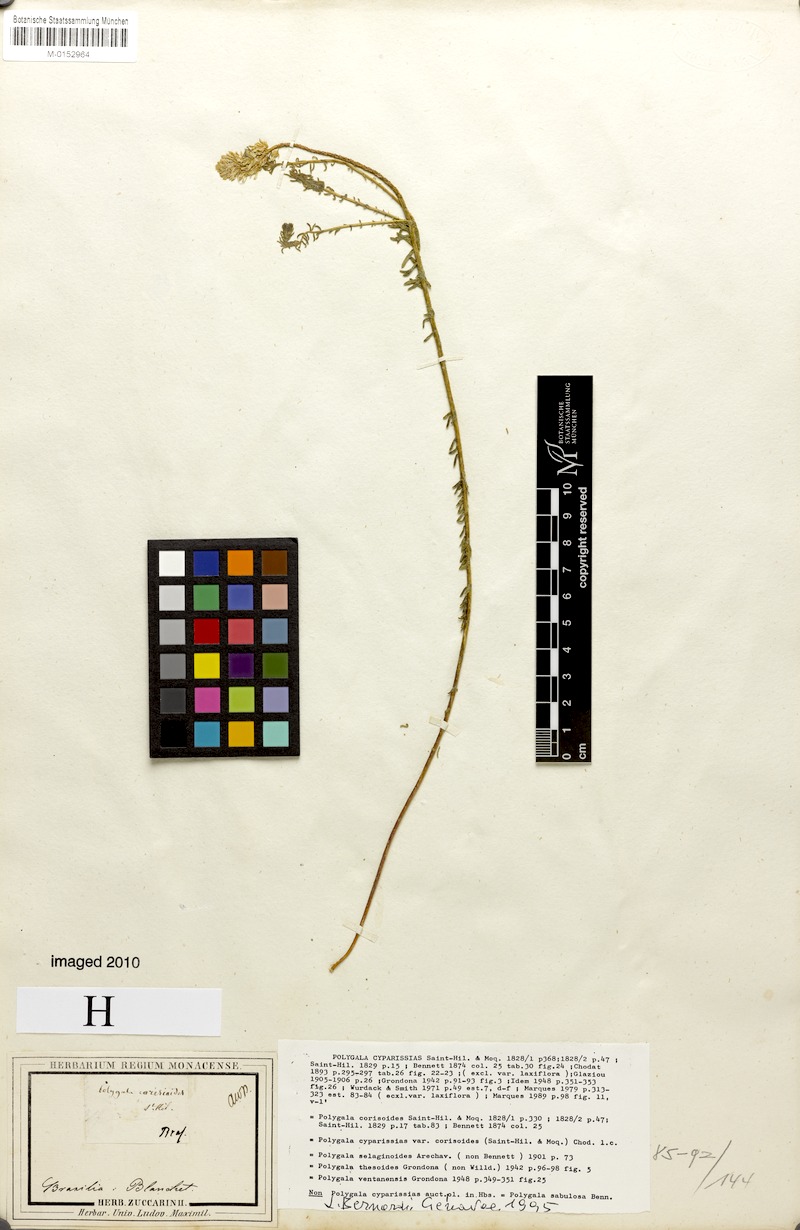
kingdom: Plantae
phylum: Tracheophyta
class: Magnoliopsida
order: Fabales
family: Polygalaceae
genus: Polygala
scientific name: Polygala cyparissias
